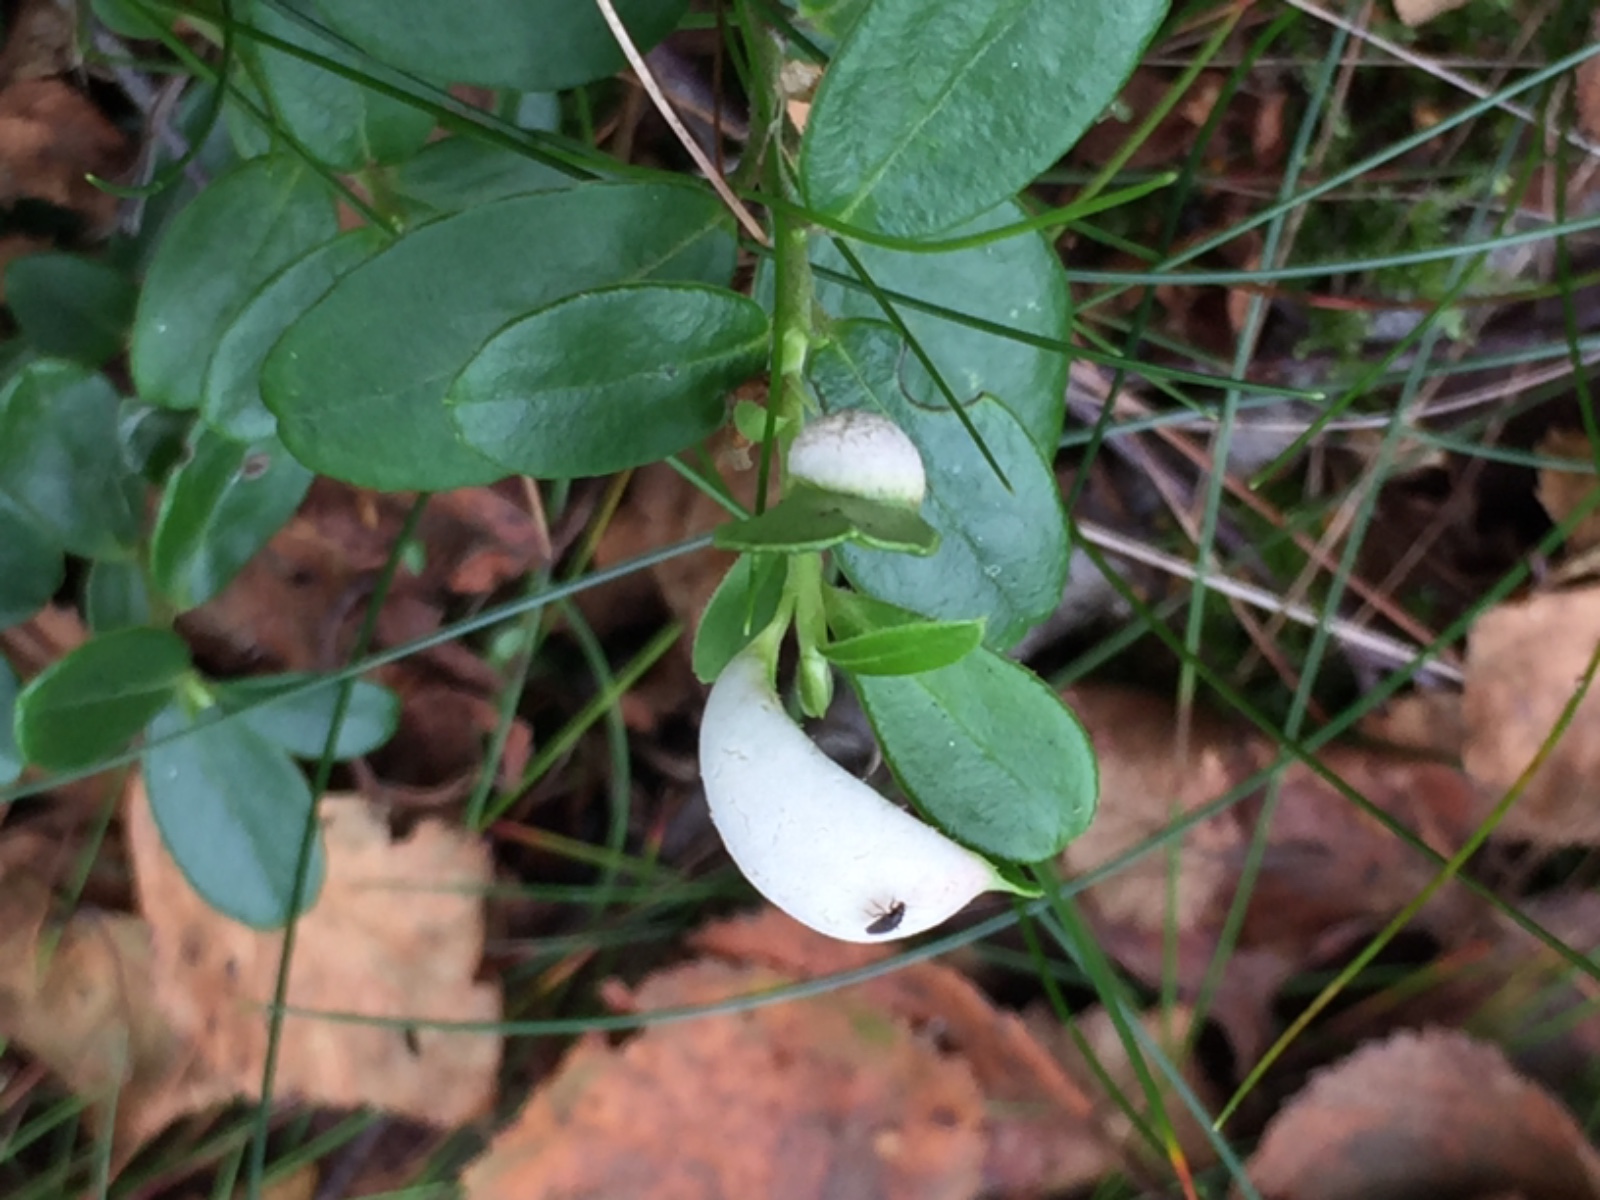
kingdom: Fungi
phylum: Basidiomycota
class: Exobasidiomycetes
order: Exobasidiales
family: Exobasidiaceae
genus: Exobasidium
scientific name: Exobasidium vaccinii
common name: tyttebærblad-bøllesvamp
